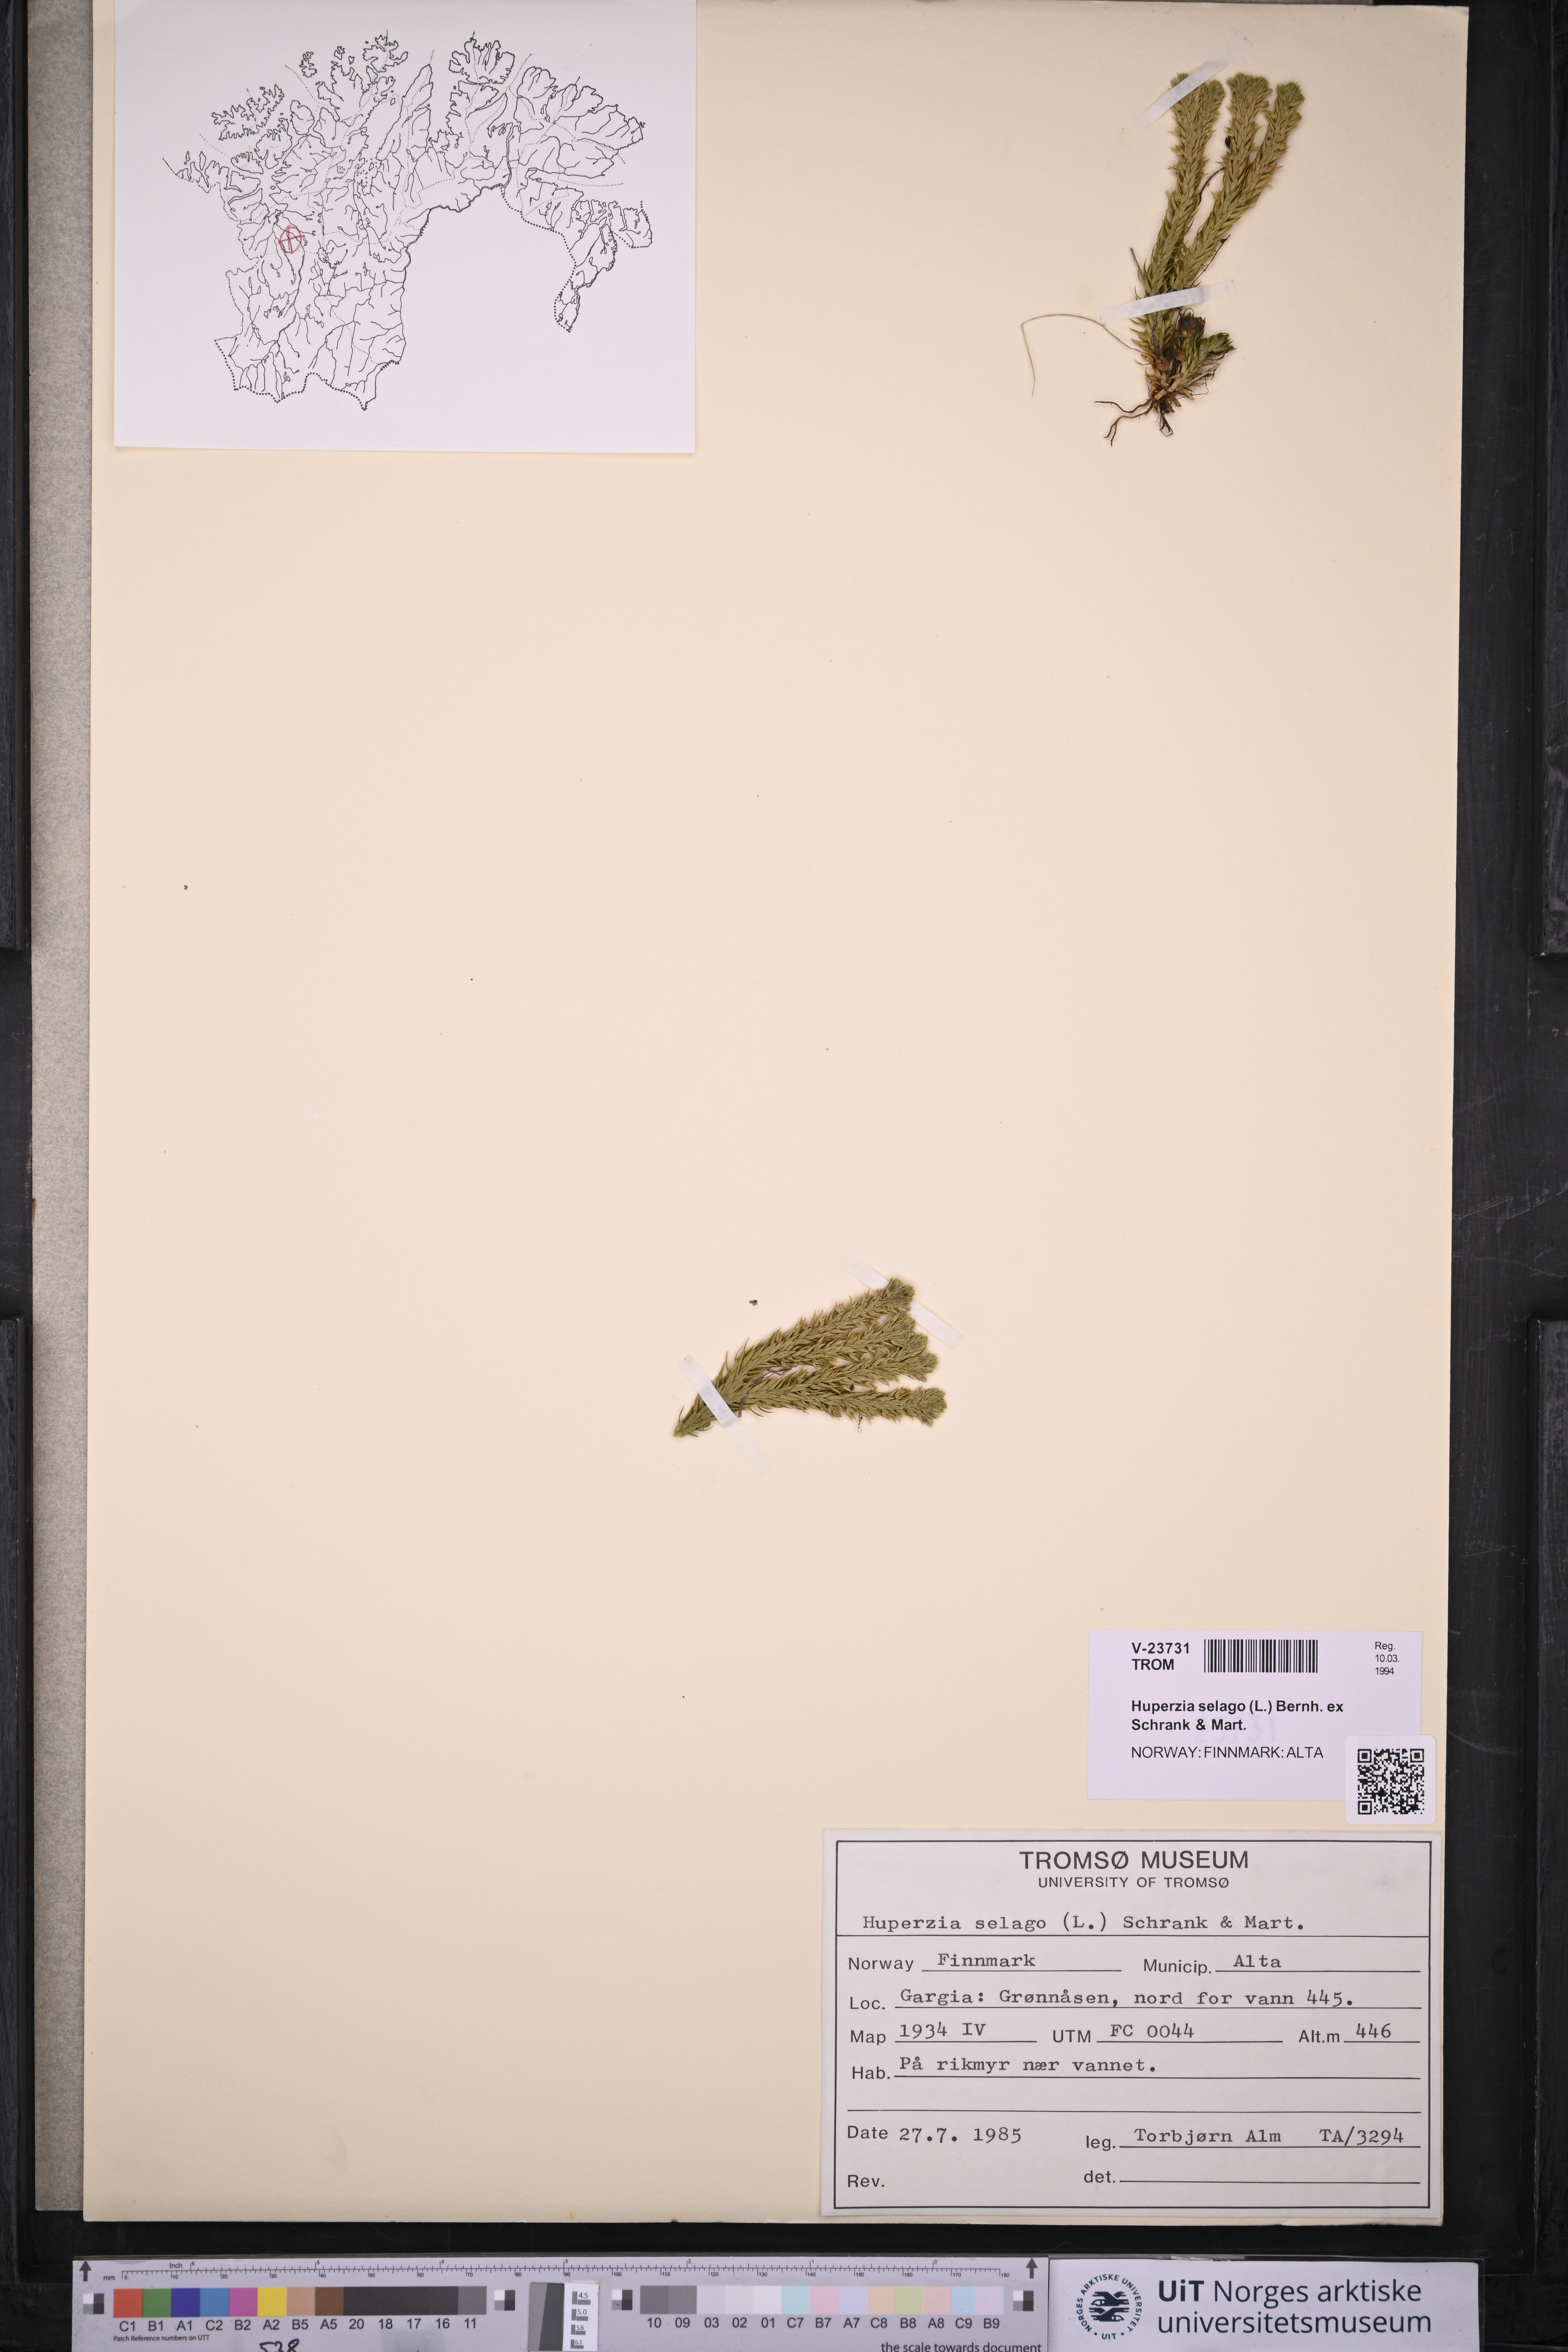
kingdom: Plantae
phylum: Tracheophyta
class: Lycopodiopsida
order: Lycopodiales
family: Lycopodiaceae
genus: Huperzia
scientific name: Huperzia selago
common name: Northern firmoss
